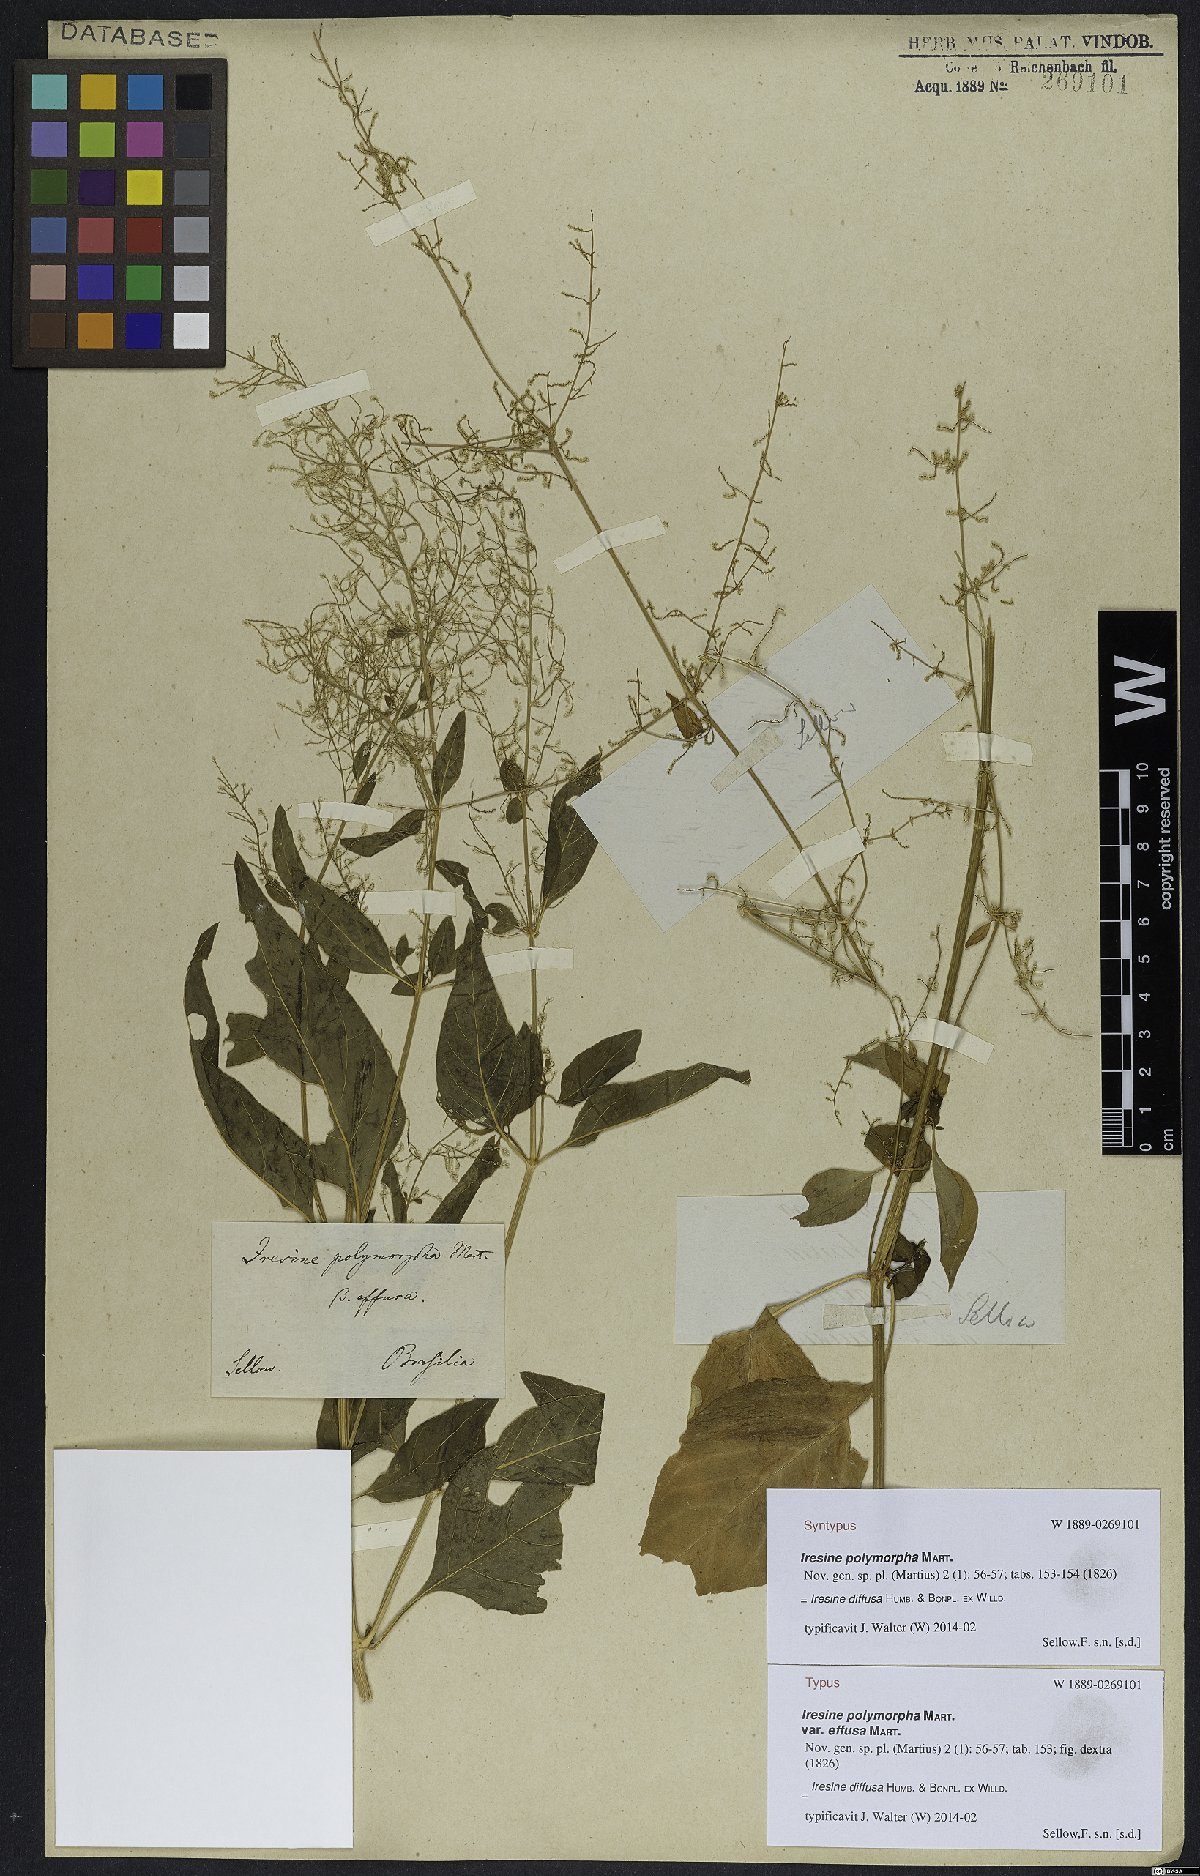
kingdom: Plantae
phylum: Tracheophyta
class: Magnoliopsida
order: Caryophyllales
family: Amaranthaceae
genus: Iresine
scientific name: Iresine diffusa
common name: Juba's-bush
